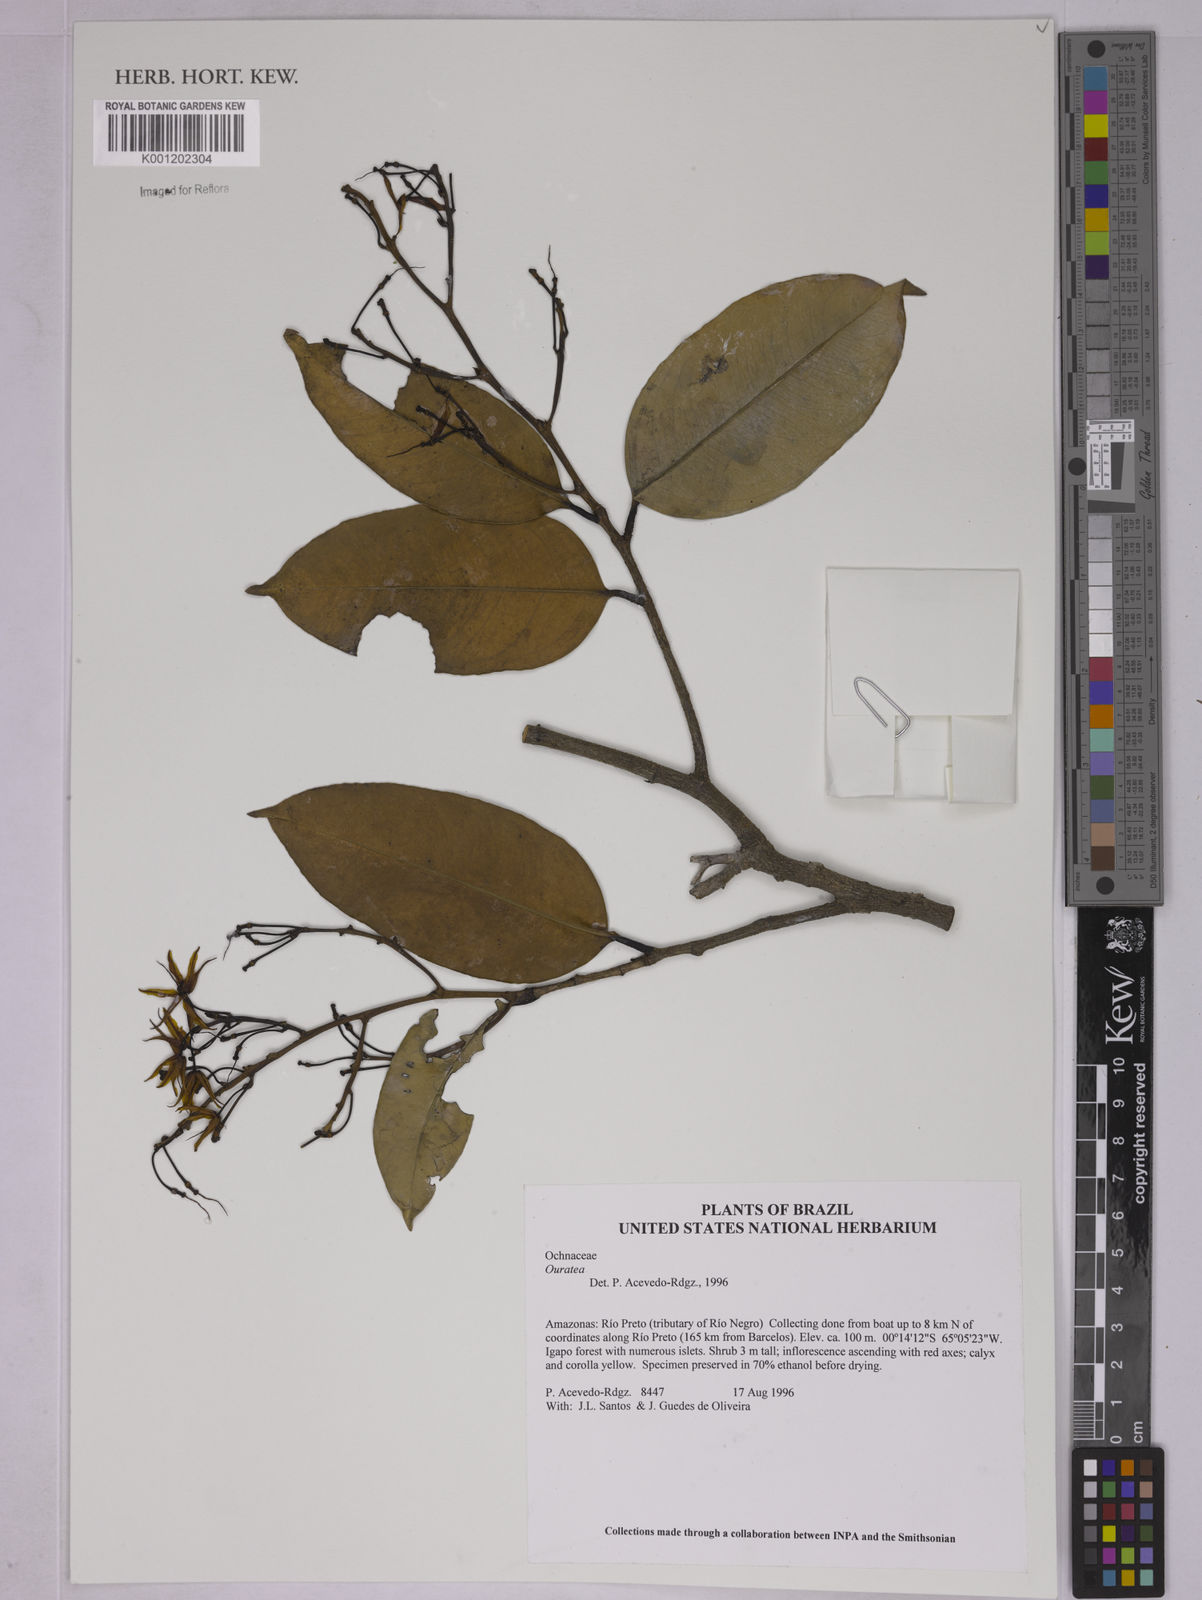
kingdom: Plantae
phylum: Tracheophyta
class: Magnoliopsida
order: Malpighiales
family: Ochnaceae
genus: Ouratea
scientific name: Ouratea
